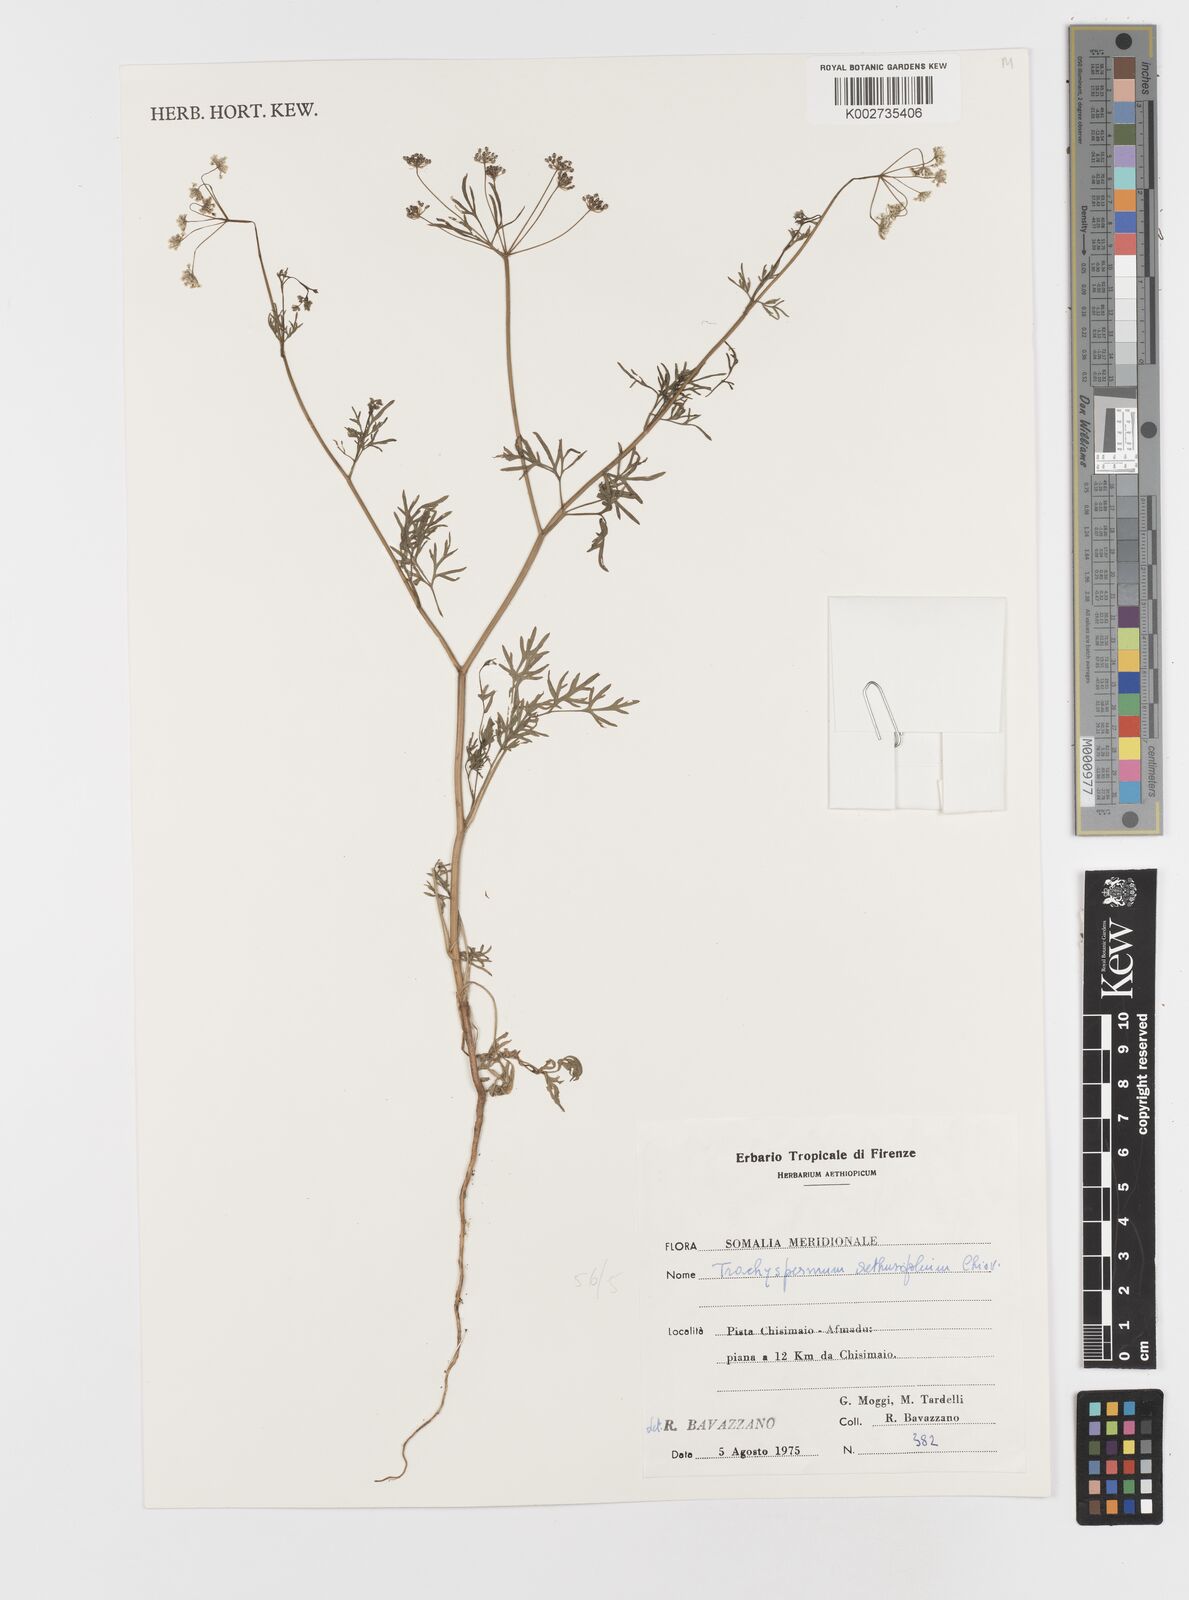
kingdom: Plantae
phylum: Tracheophyta
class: Magnoliopsida
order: Apiales
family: Apiaceae
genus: Trachyspermum
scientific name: Trachyspermum pimpinelloides
